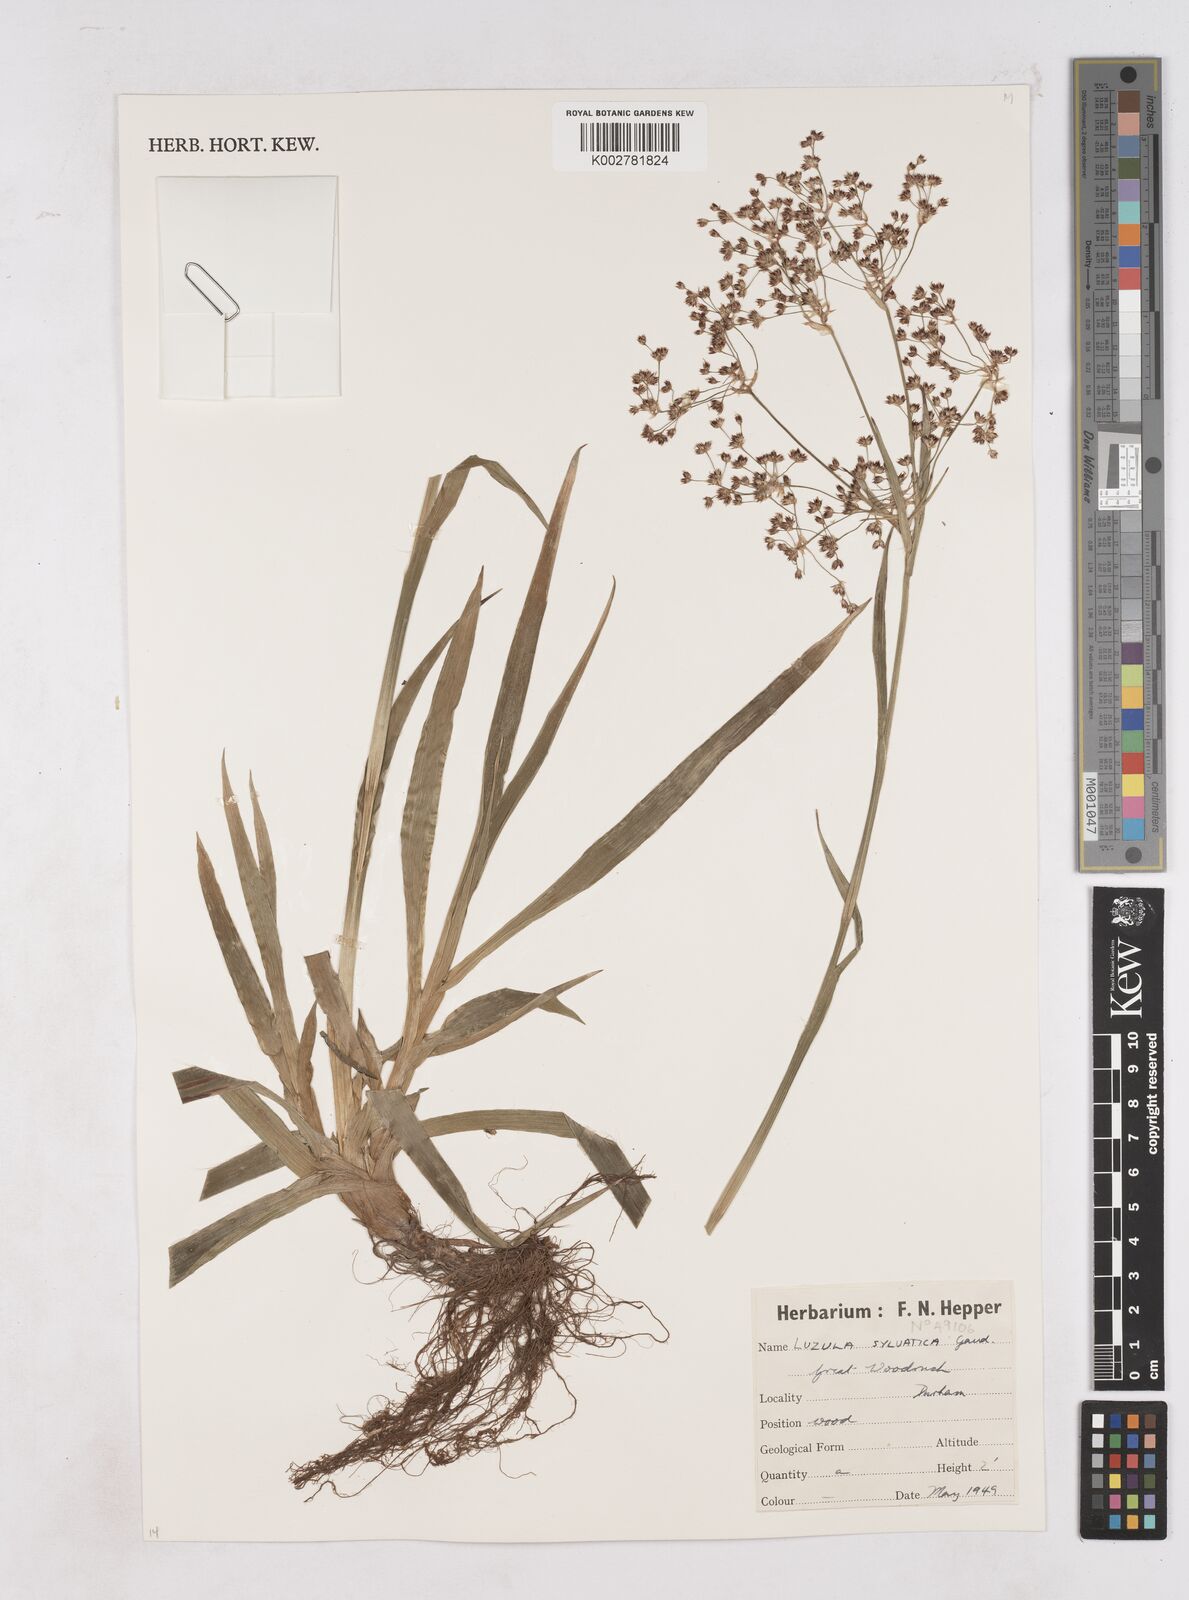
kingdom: Plantae
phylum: Tracheophyta
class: Liliopsida
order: Poales
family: Juncaceae
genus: Luzula
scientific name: Luzula sylvatica
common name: Great wood-rush
